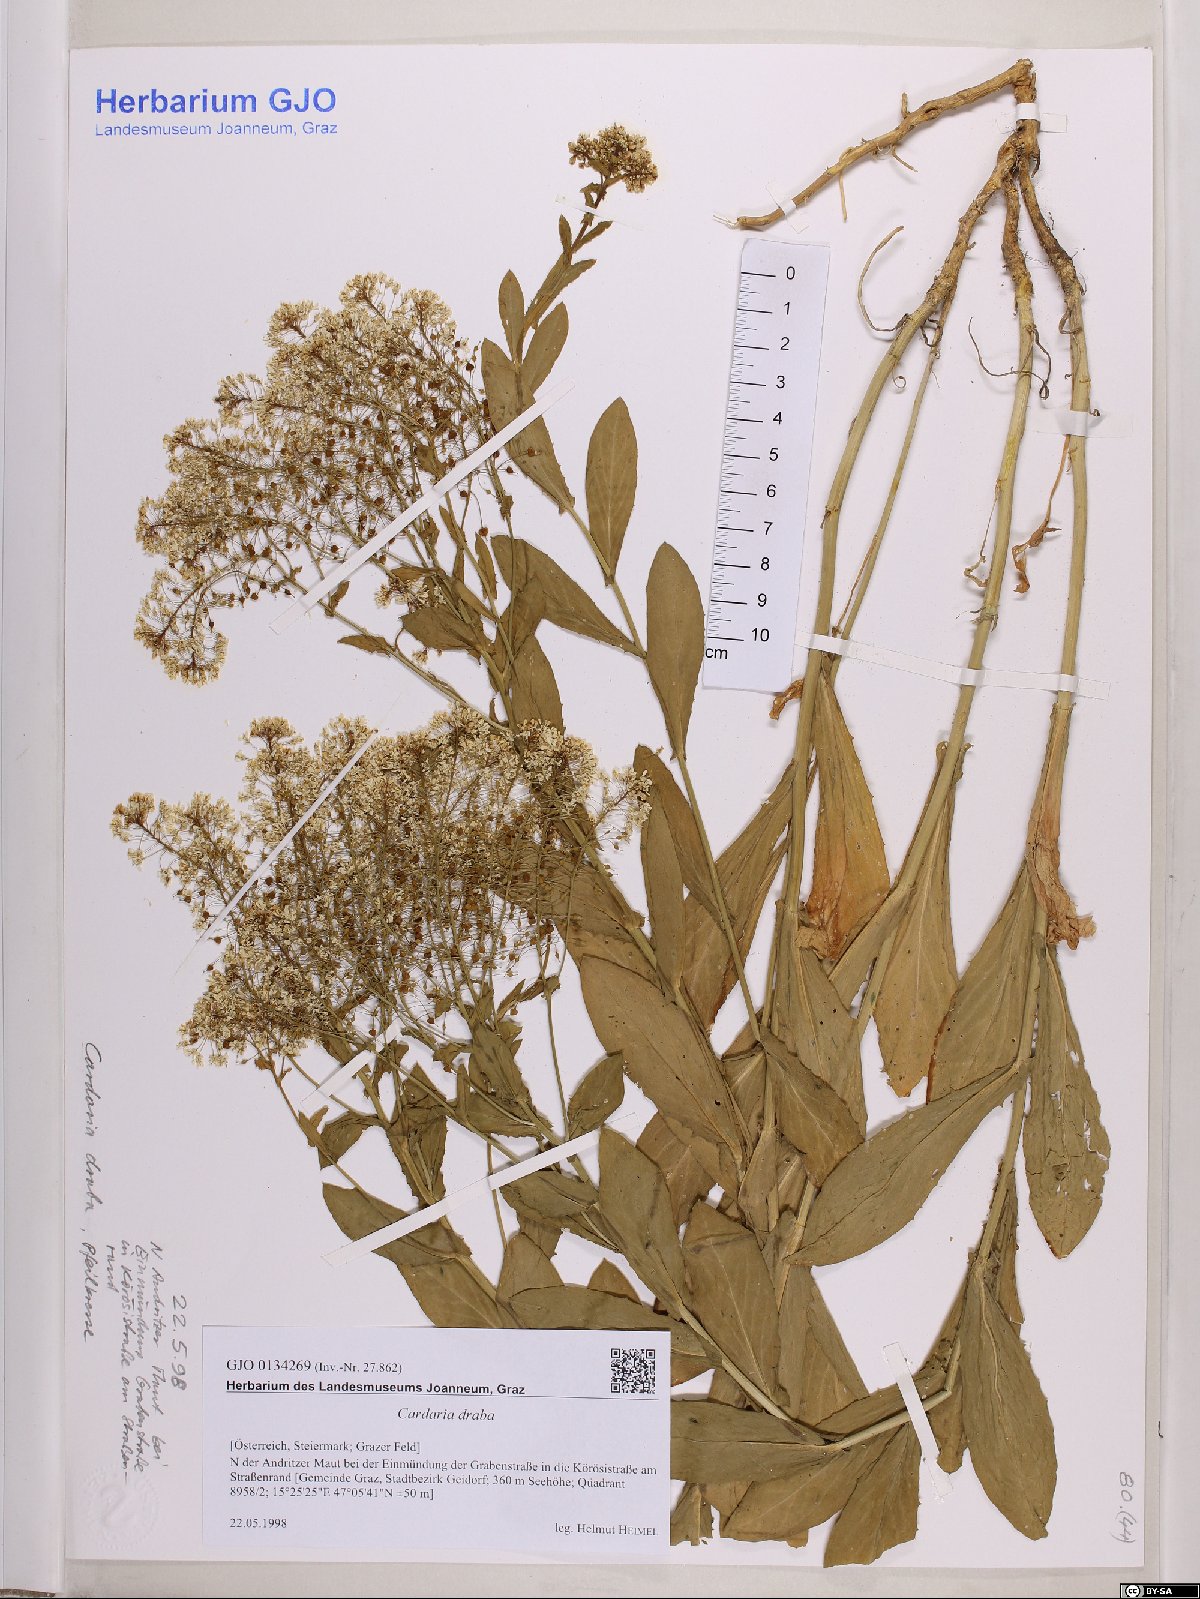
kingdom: Plantae
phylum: Tracheophyta
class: Magnoliopsida
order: Brassicales
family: Brassicaceae
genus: Lepidium
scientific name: Lepidium draba
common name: Hoary cress
